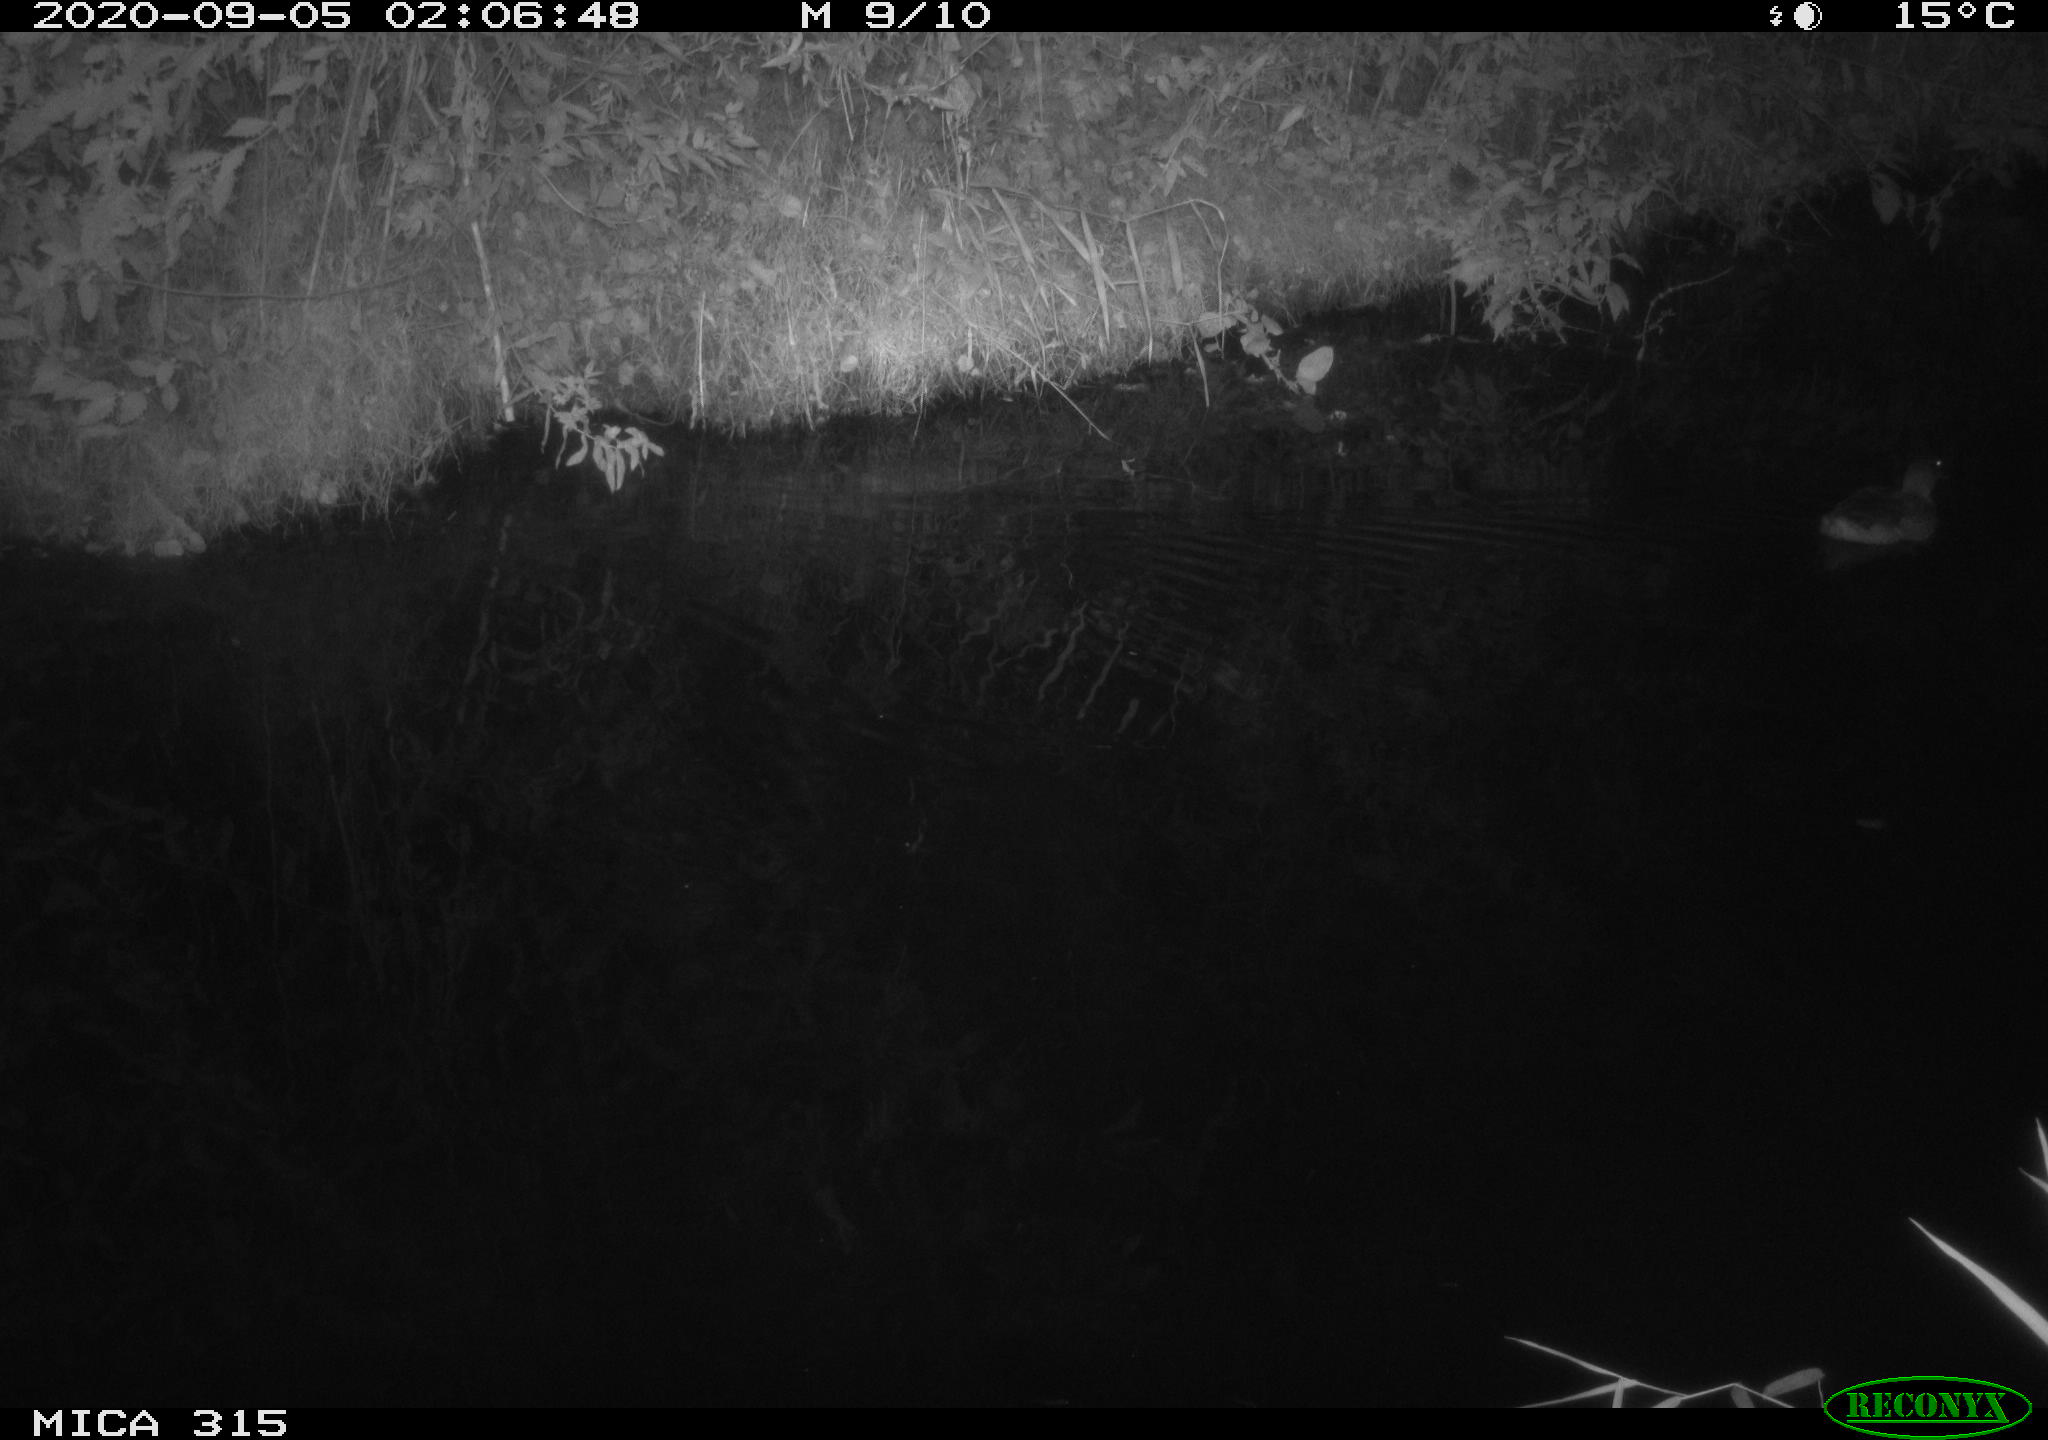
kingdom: Animalia
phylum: Chordata
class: Aves
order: Anseriformes
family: Anatidae
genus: Anas
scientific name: Anas platyrhynchos
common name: Mallard
